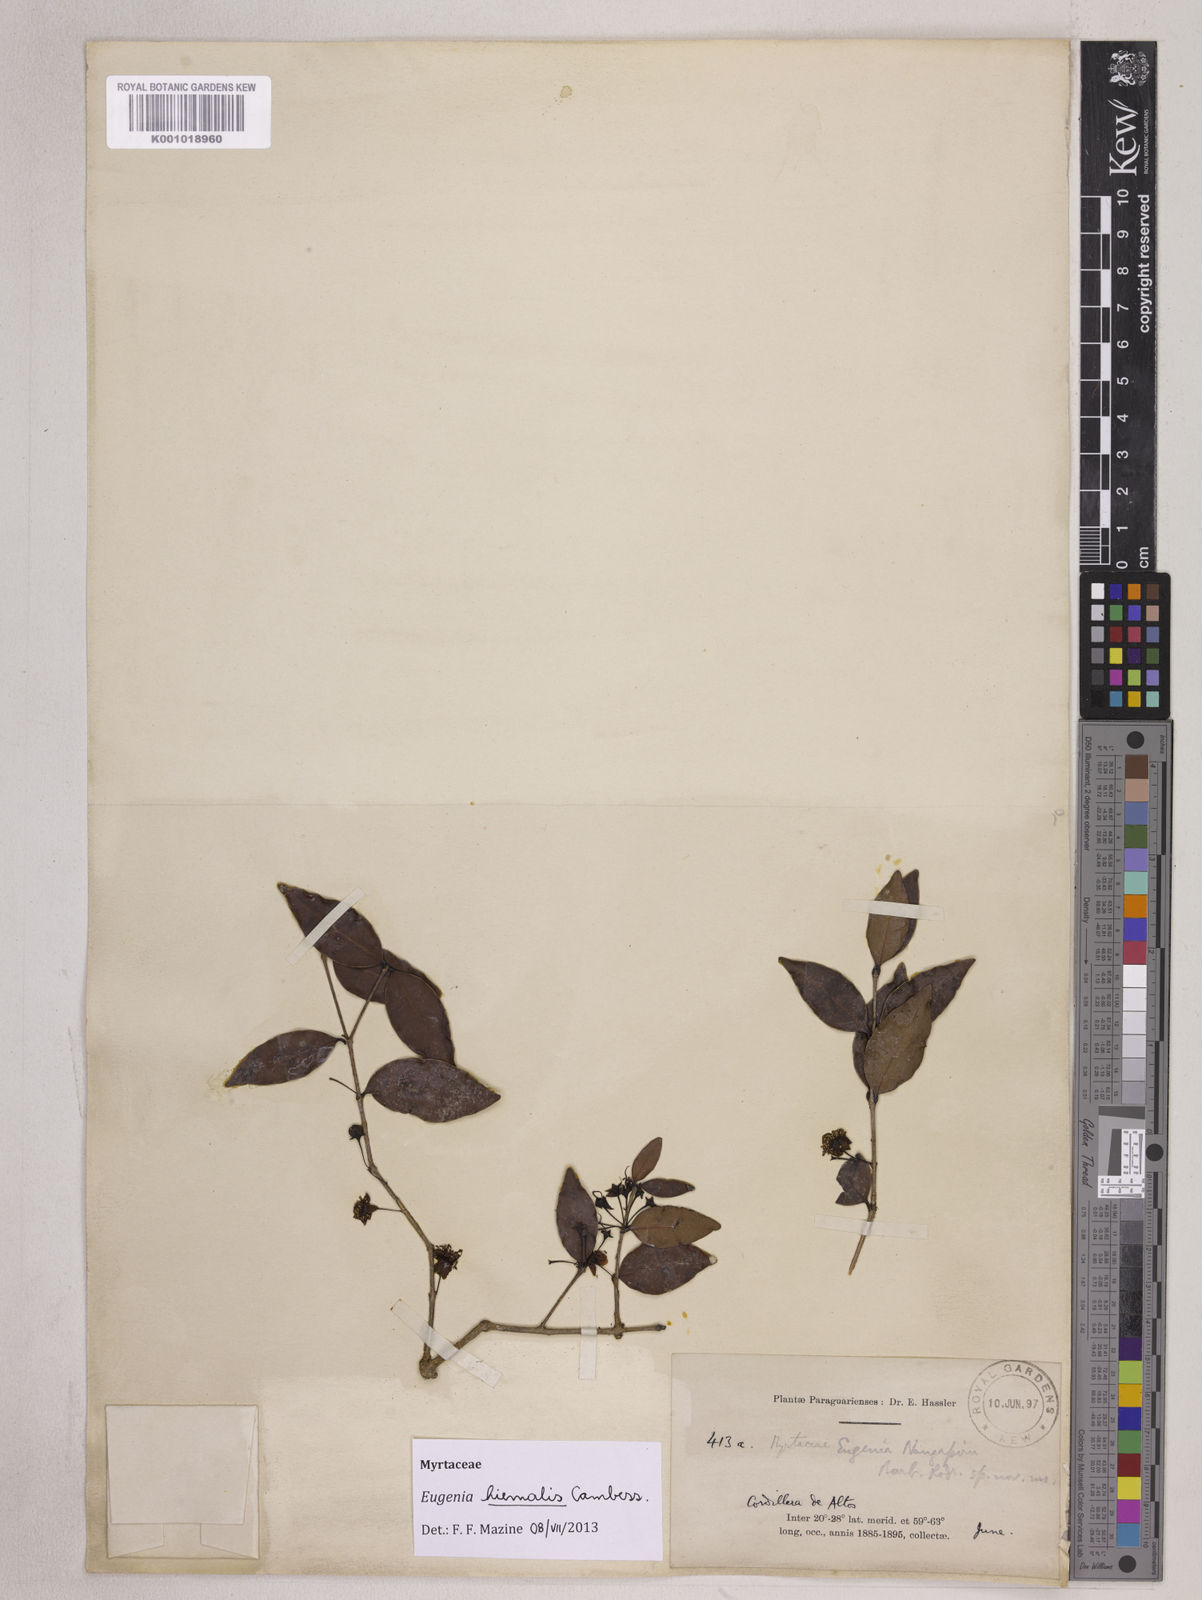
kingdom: Plantae
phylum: Tracheophyta
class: Magnoliopsida
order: Myrtales
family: Myrtaceae
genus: Eugenia
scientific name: Eugenia hiemalis
